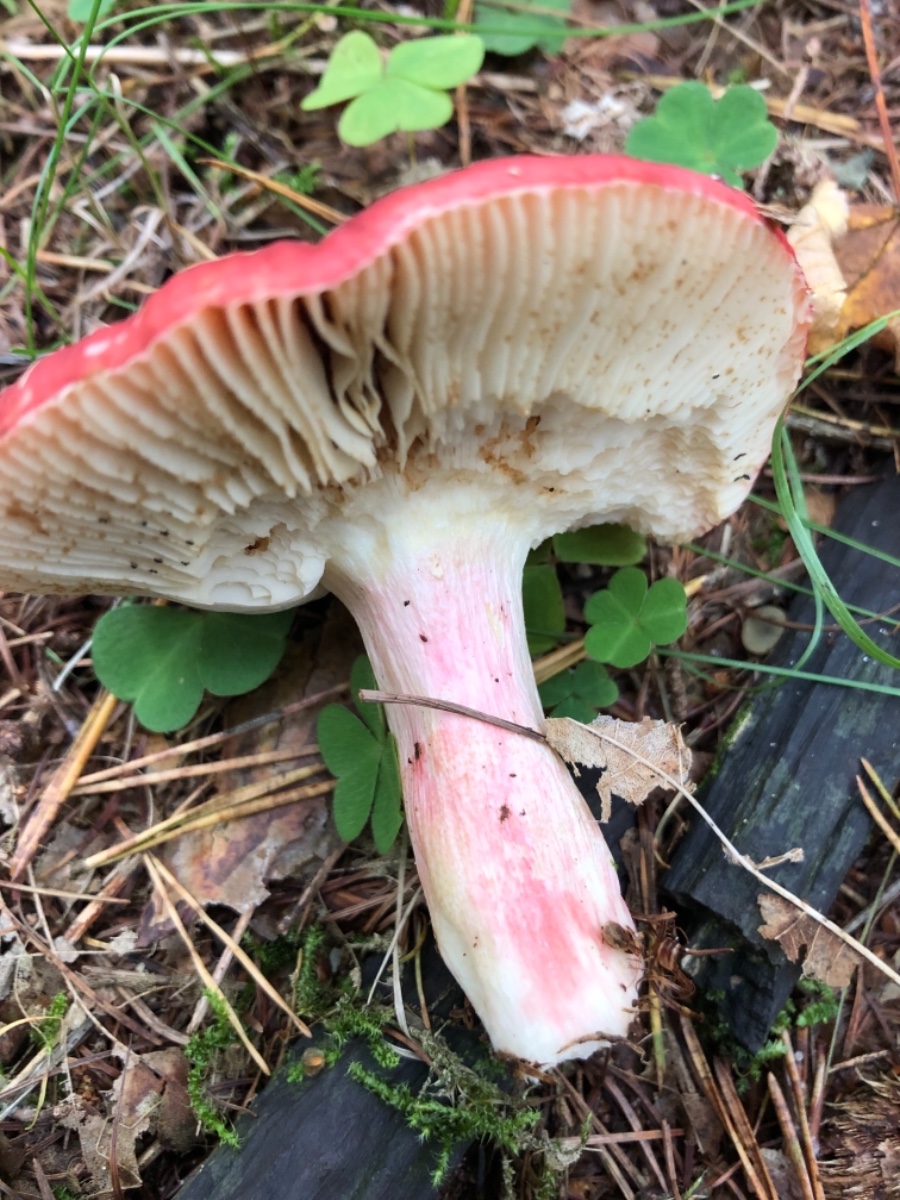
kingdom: Fungi
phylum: Basidiomycota
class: Agaricomycetes
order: Russulales
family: Russulaceae
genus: Russula
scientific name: Russula xerampelina
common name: hummer-skørhat
